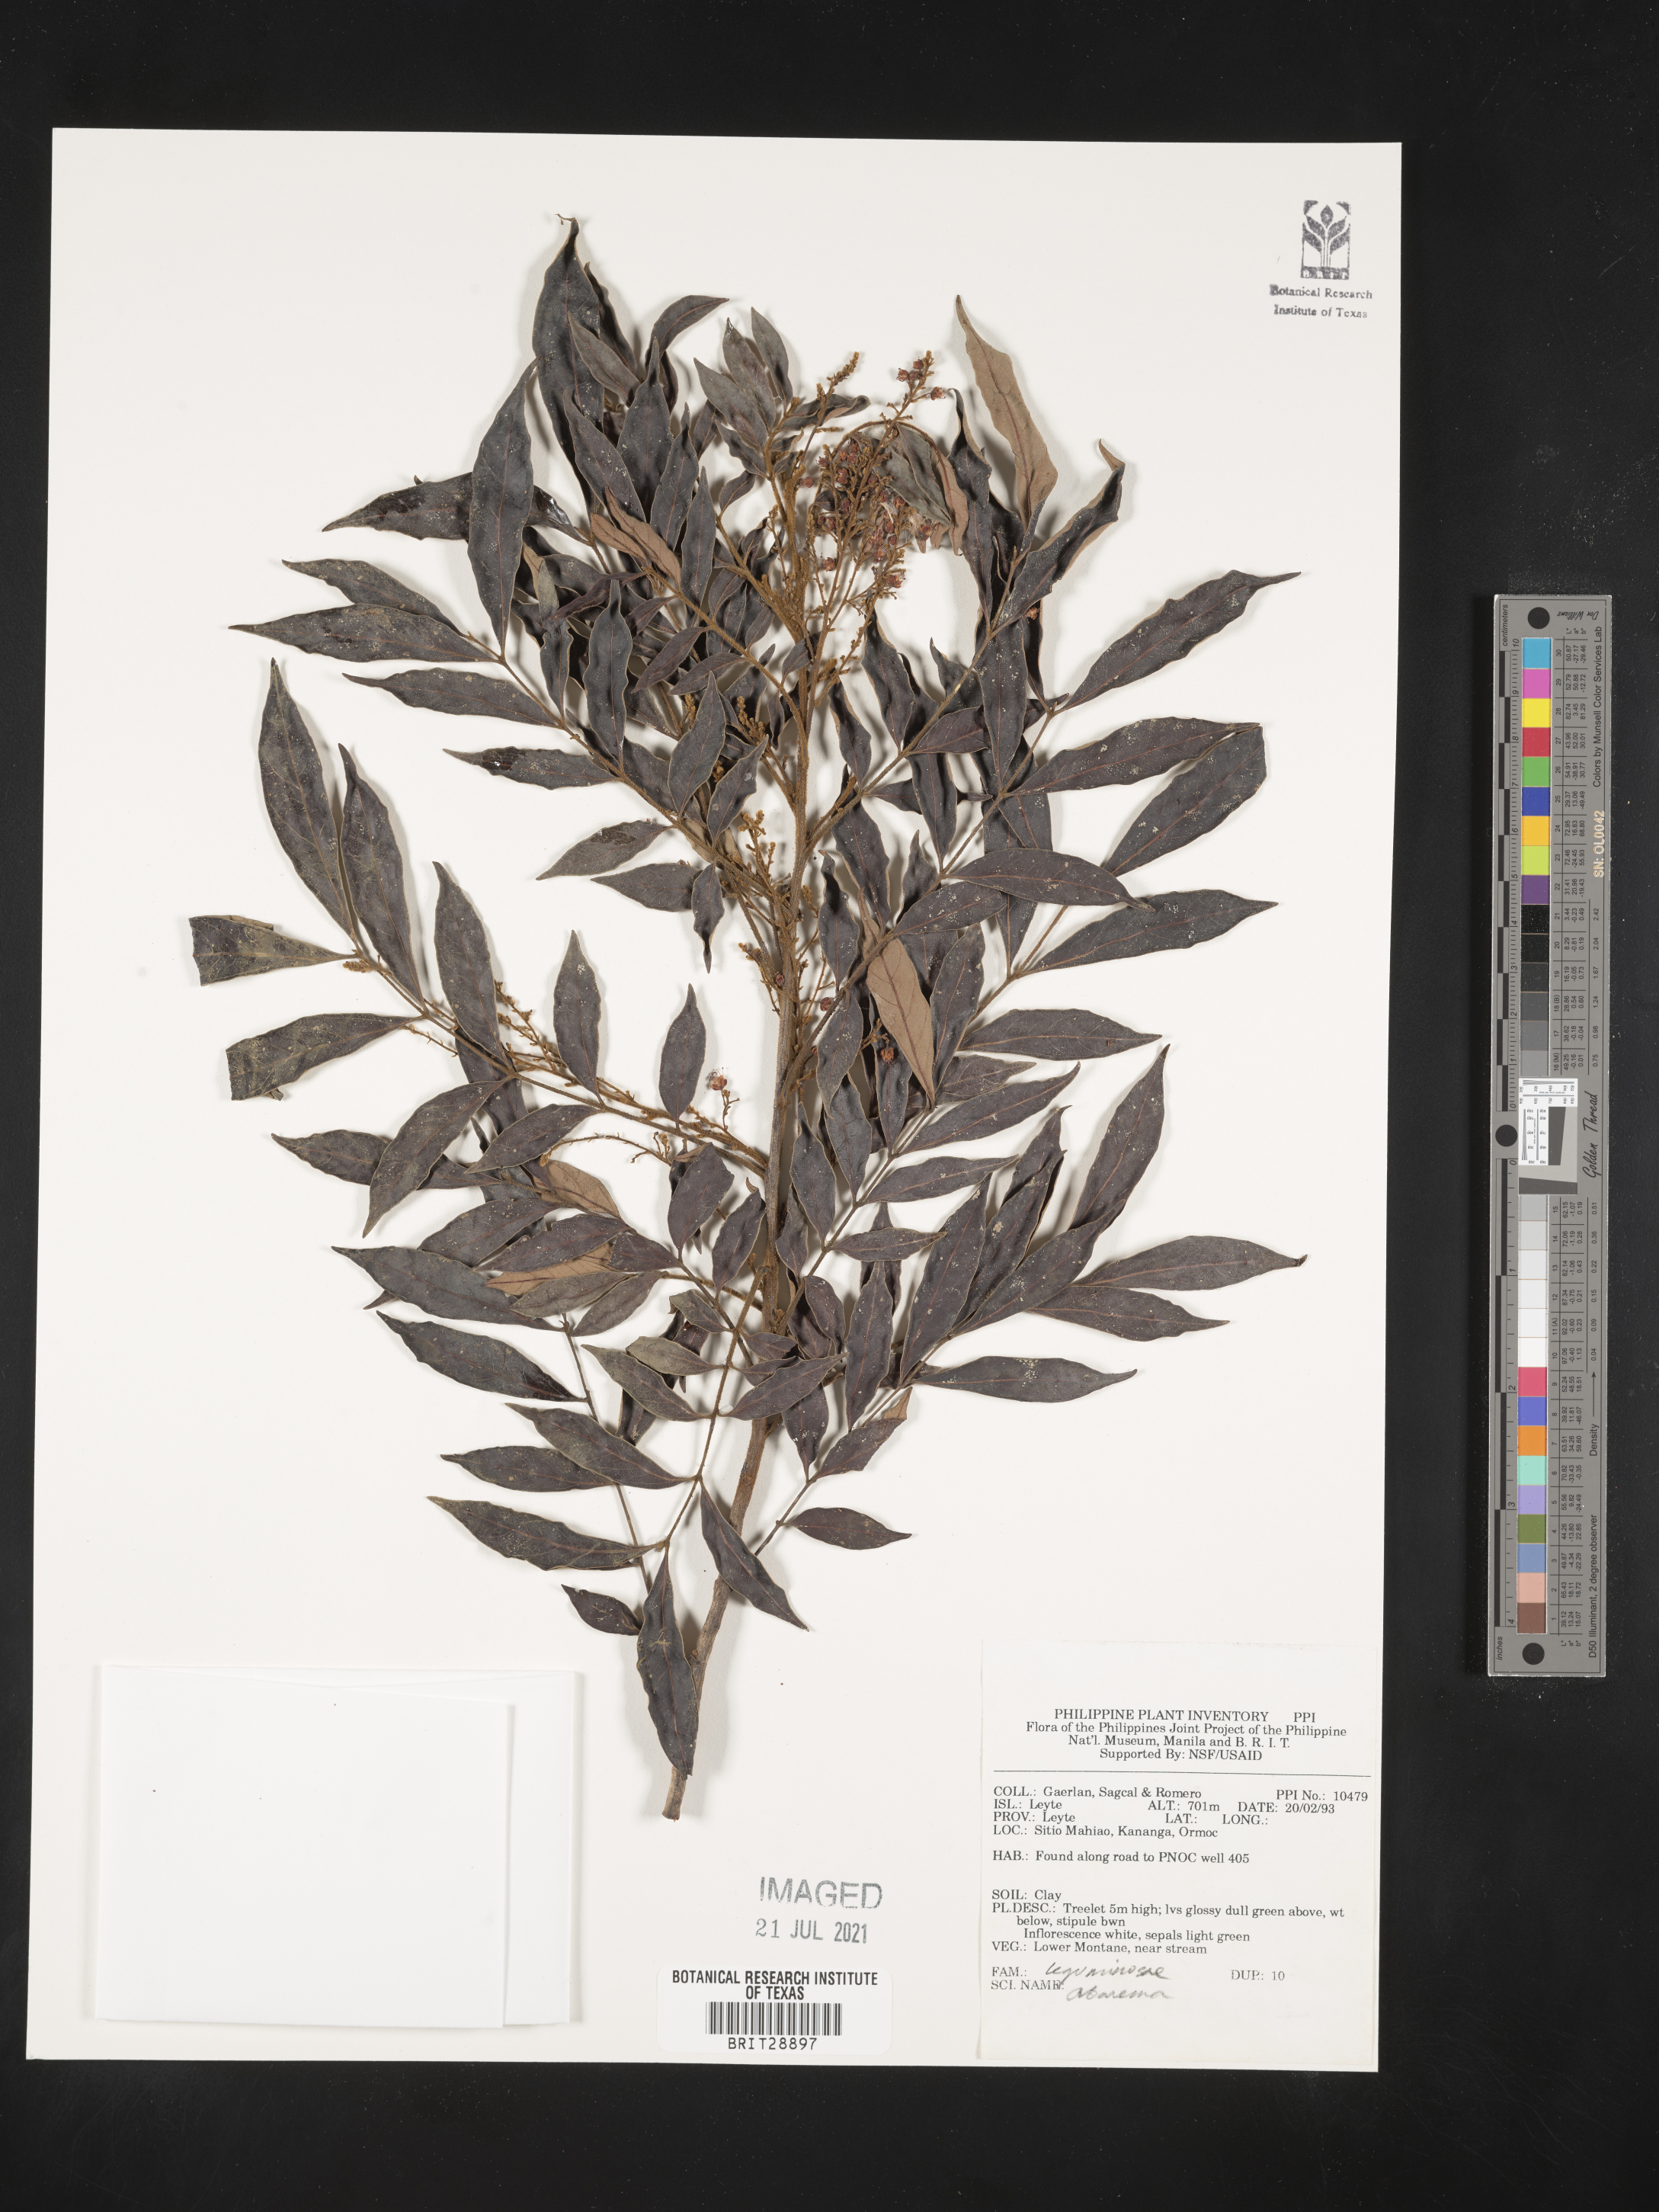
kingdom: Plantae
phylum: Tracheophyta
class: Magnoliopsida
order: Fabales
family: Fabaceae
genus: Abarema
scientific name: Abarema
